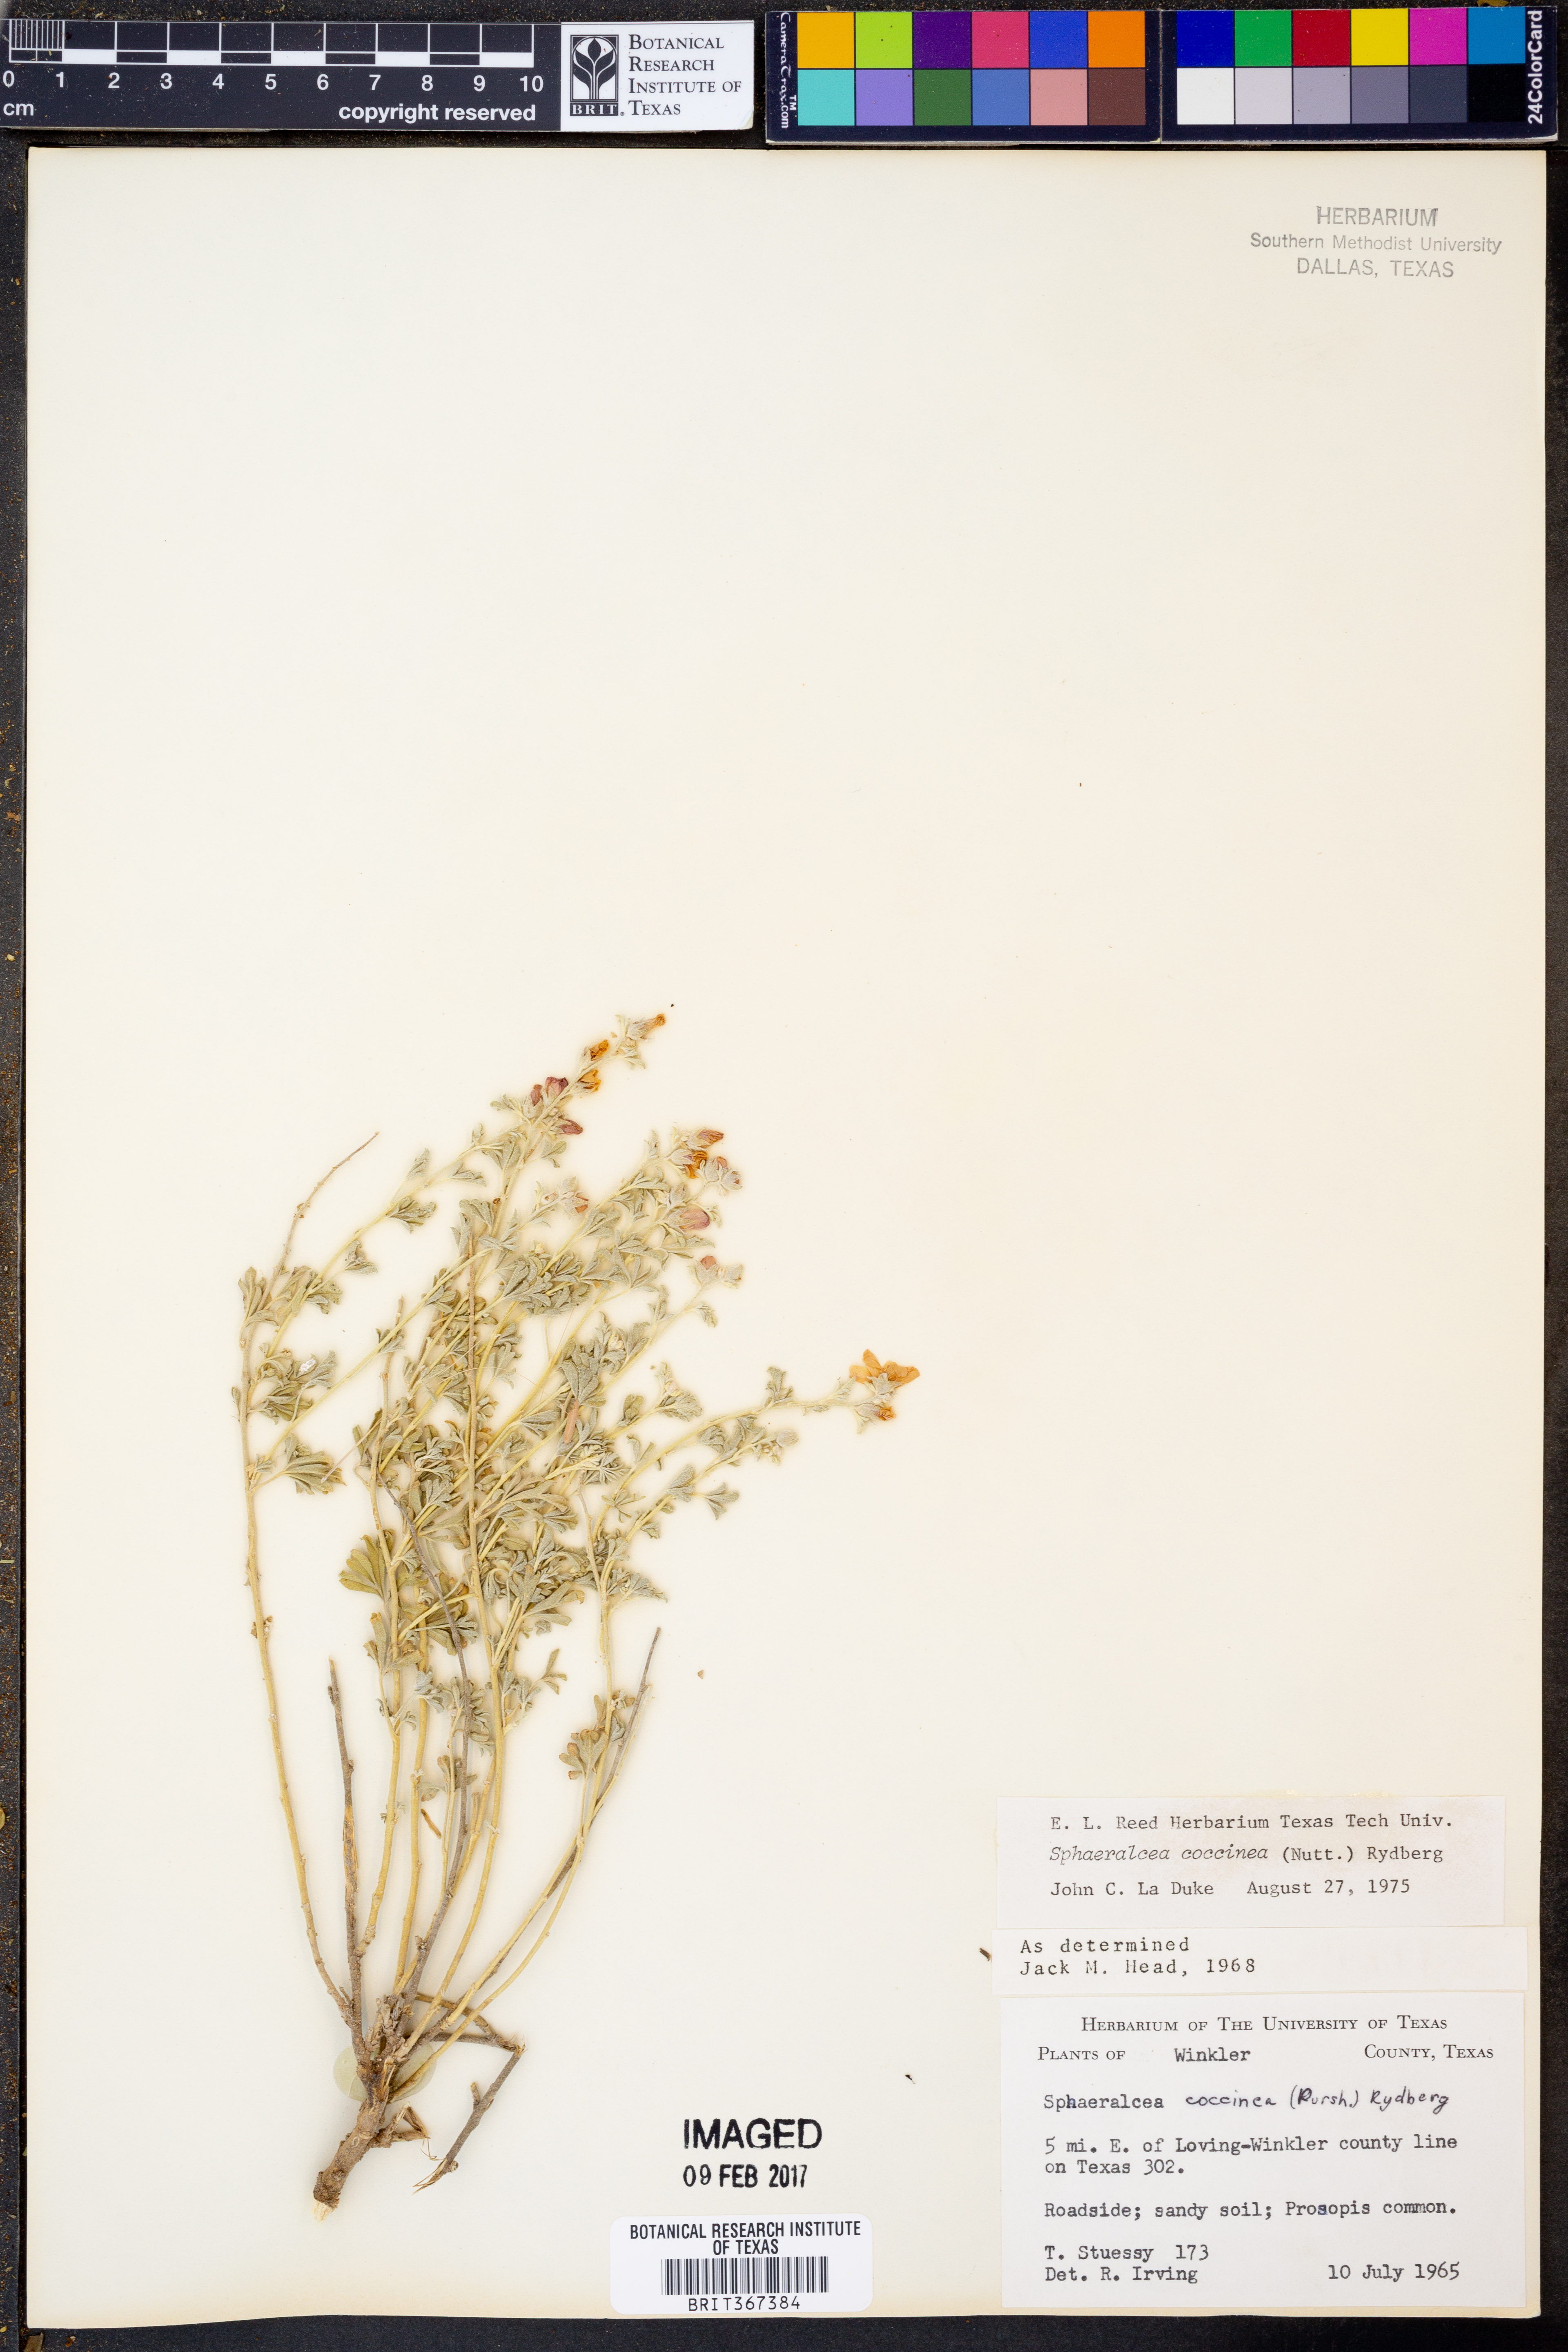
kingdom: Plantae
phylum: Tracheophyta
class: Magnoliopsida
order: Malvales
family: Malvaceae
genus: Sphaeralcea
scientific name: Sphaeralcea coccinea
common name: Moss-rose
